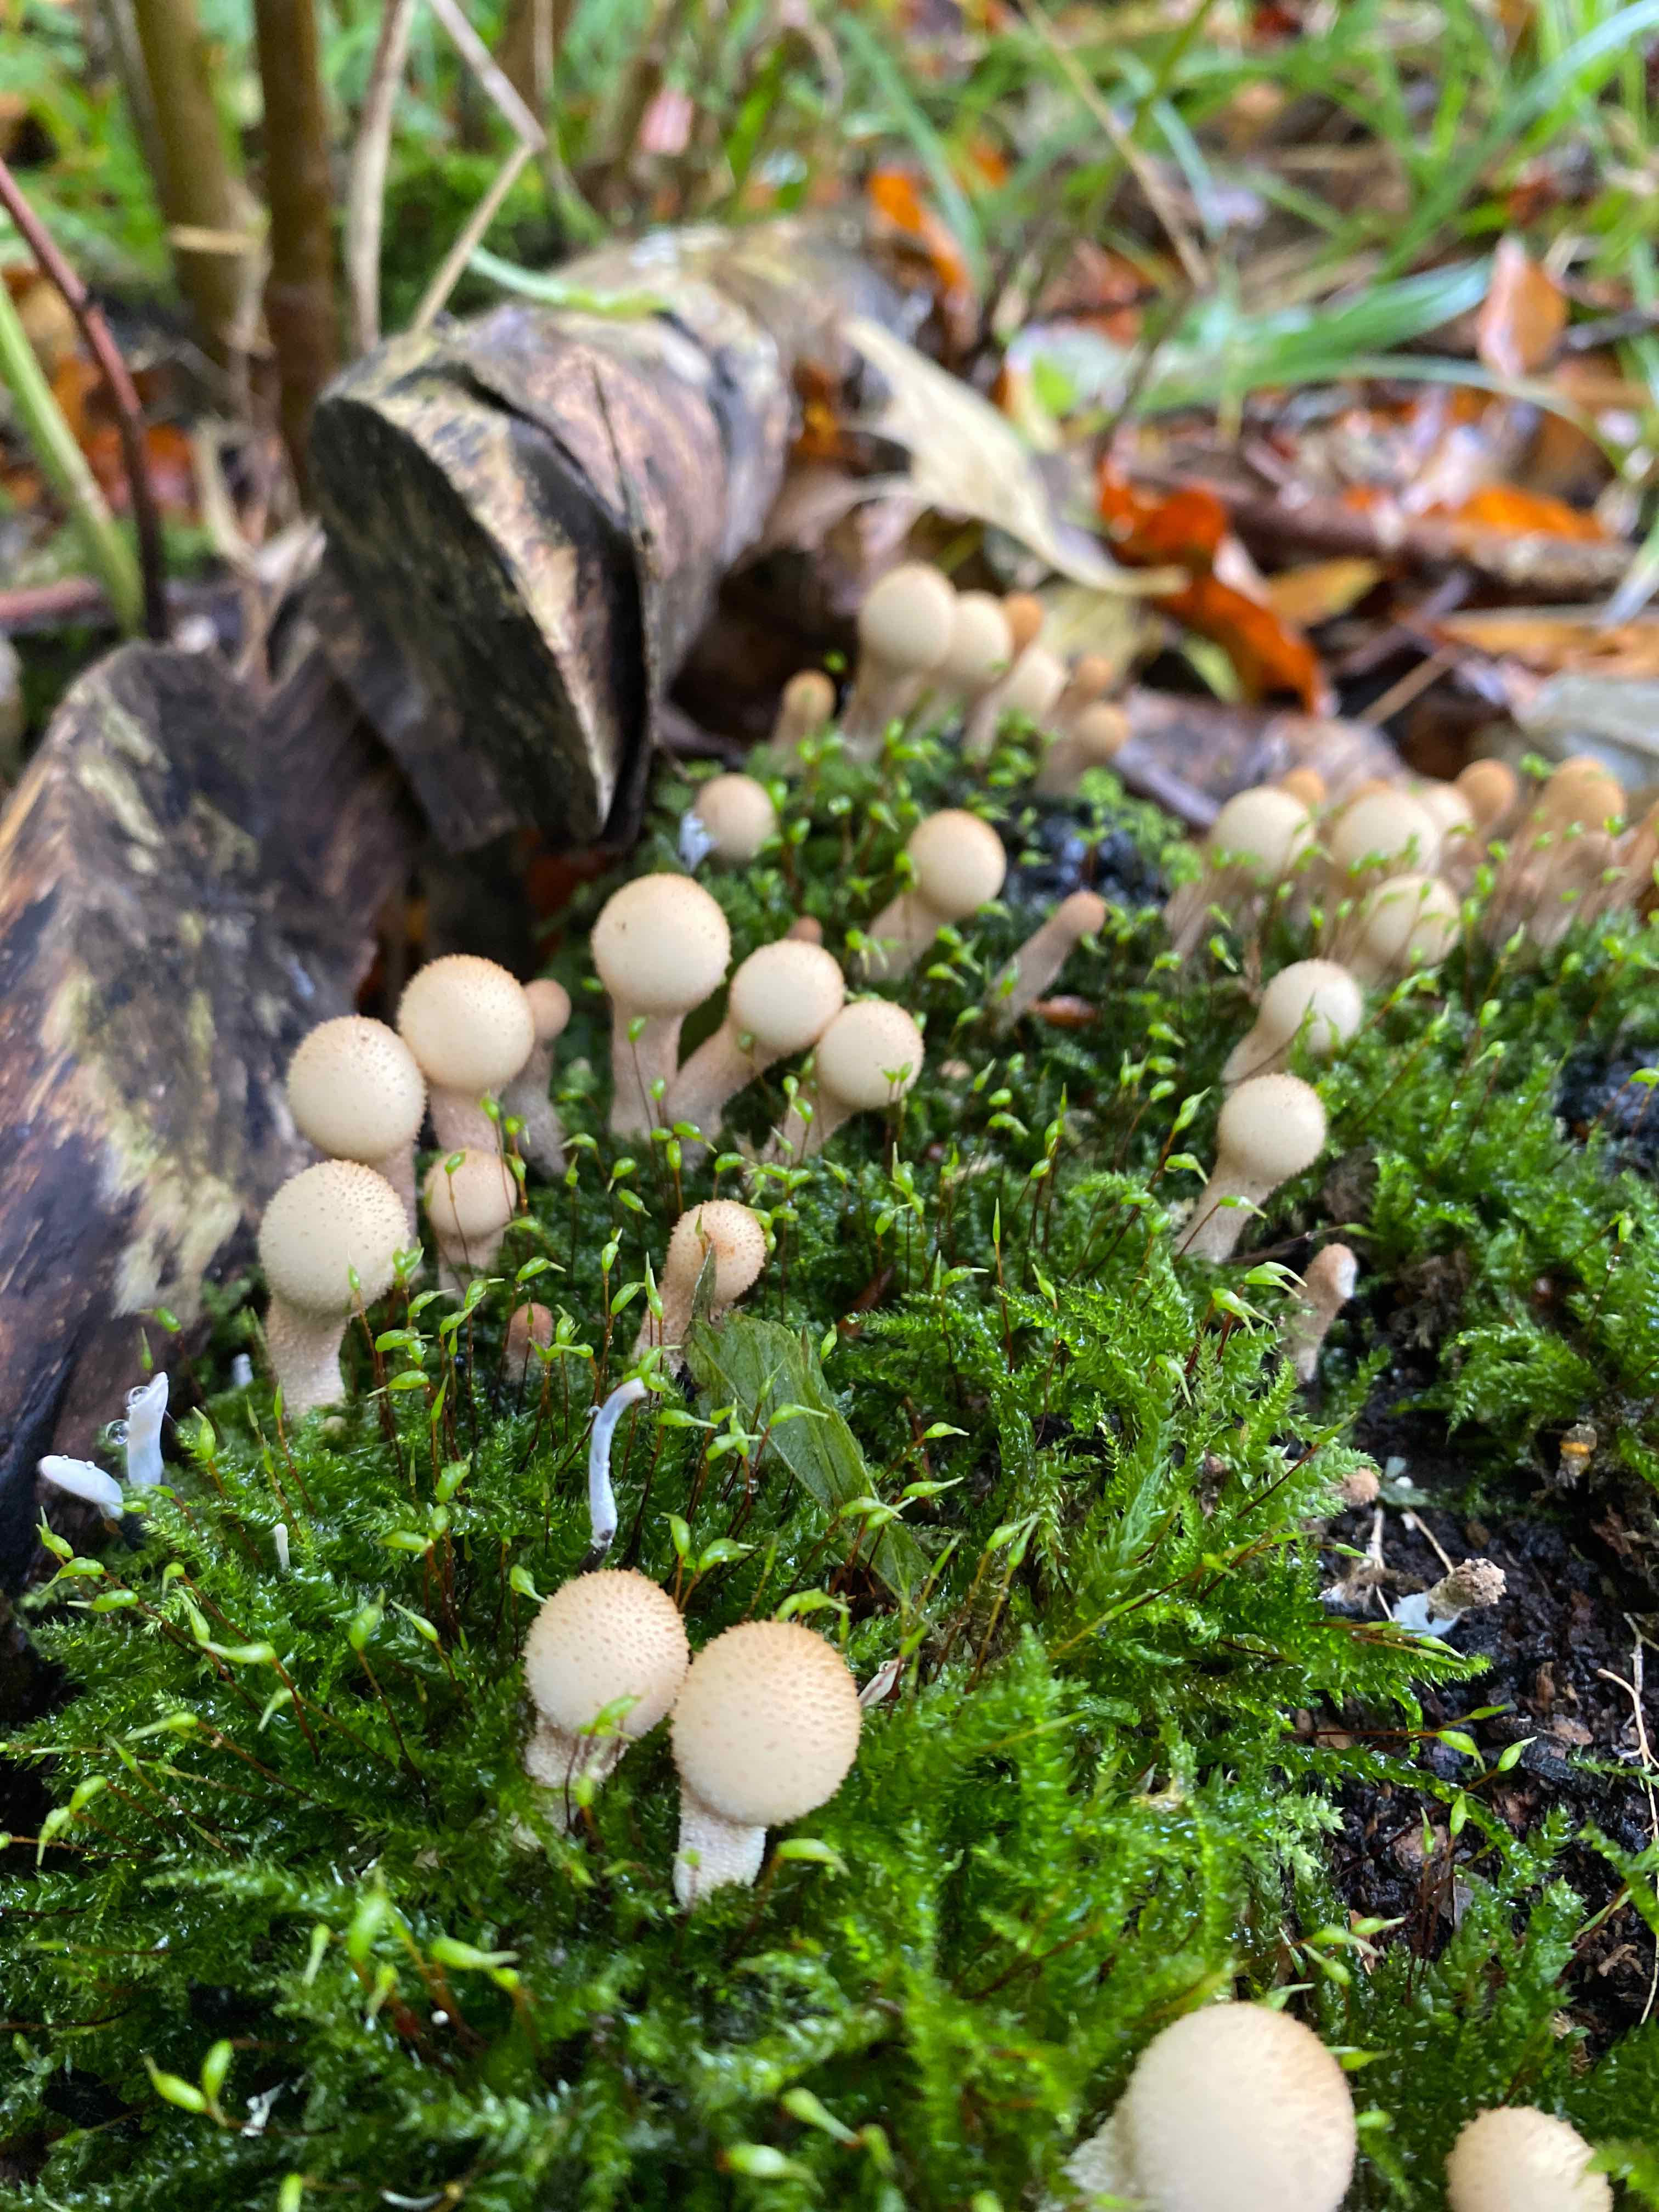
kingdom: Fungi
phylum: Basidiomycota
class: Agaricomycetes
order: Agaricales
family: Lycoperdaceae
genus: Apioperdon
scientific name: Apioperdon pyriforme
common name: pære-støvbold
